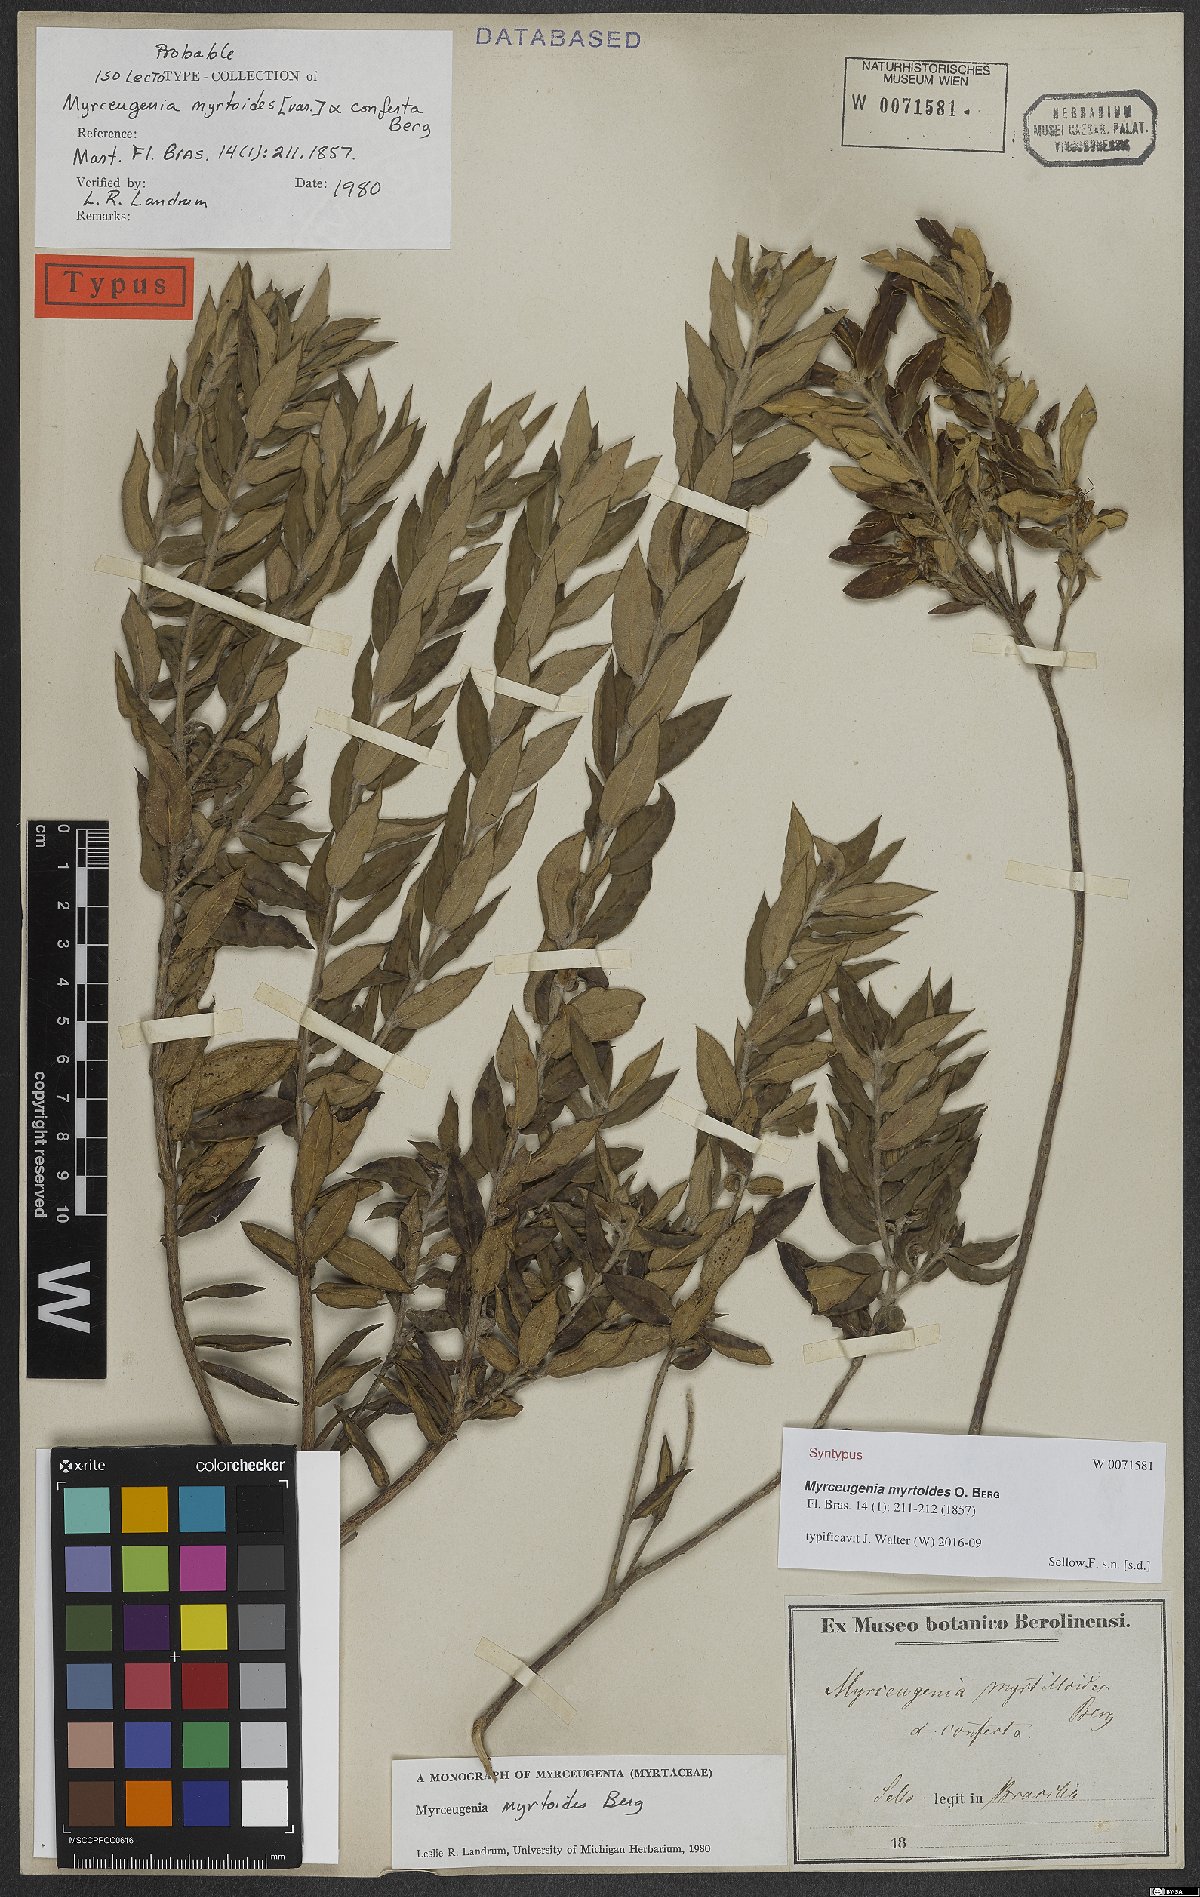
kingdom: Plantae
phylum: Tracheophyta
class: Magnoliopsida
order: Myrtales
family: Myrtaceae
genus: Myrceugenia
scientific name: Myrceugenia myrtoides
